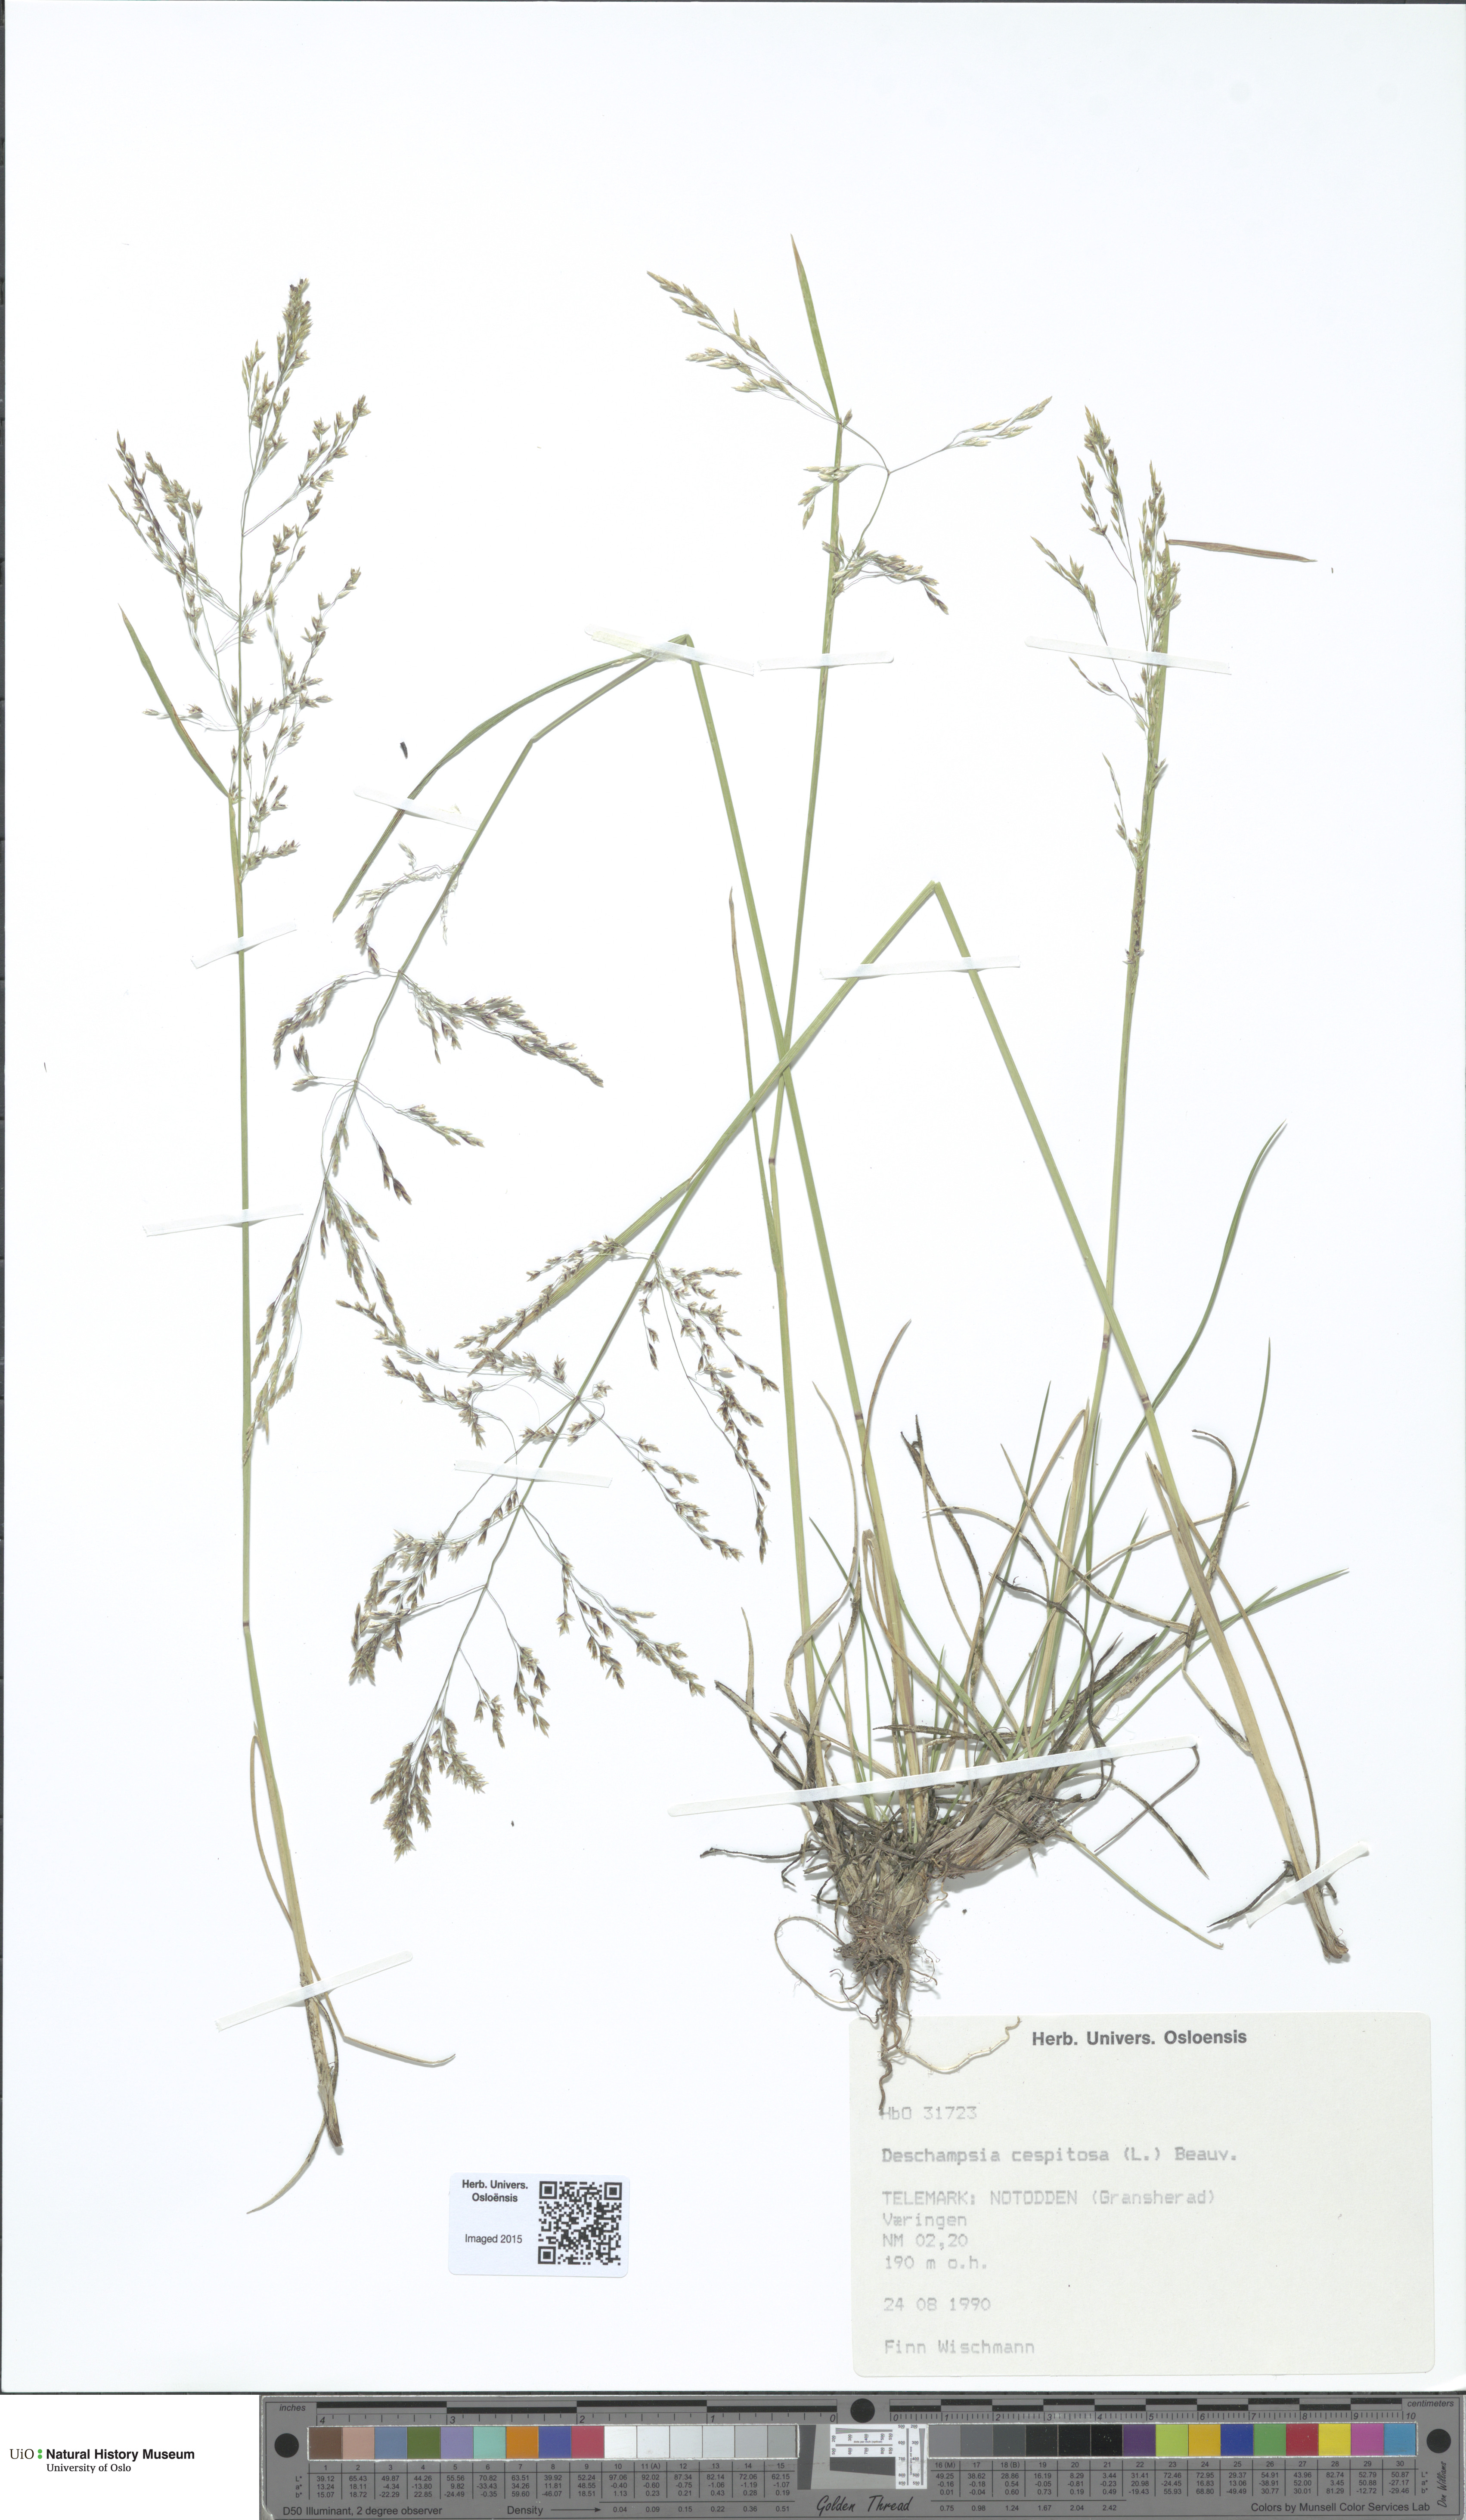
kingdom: Plantae
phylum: Tracheophyta
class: Liliopsida
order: Poales
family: Poaceae
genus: Deschampsia
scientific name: Deschampsia cespitosa
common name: Tufted hair-grass
